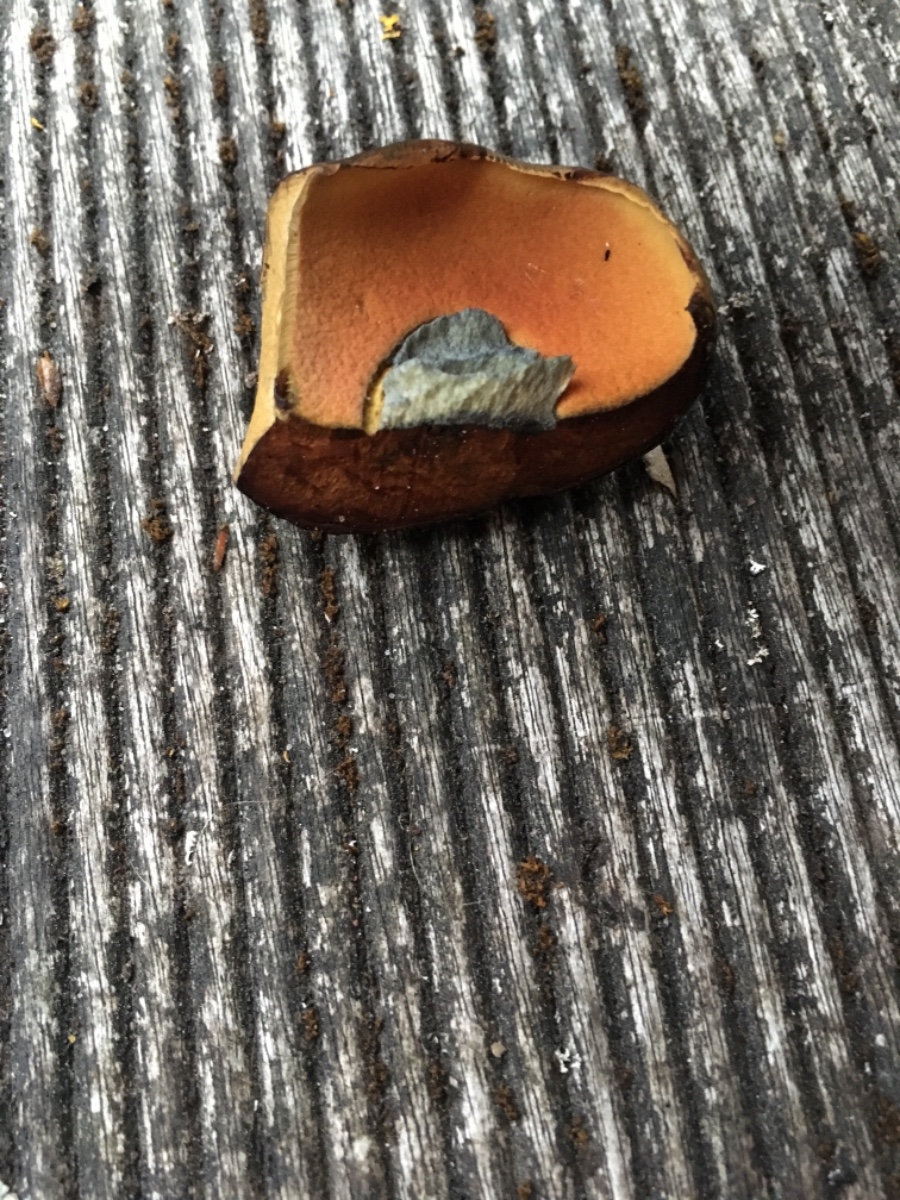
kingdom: Fungi
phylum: Basidiomycota
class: Agaricomycetes
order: Boletales
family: Boletaceae
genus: Cyanoboletus
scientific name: Cyanoboletus pulverulentus
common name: sortblånende rørhat
